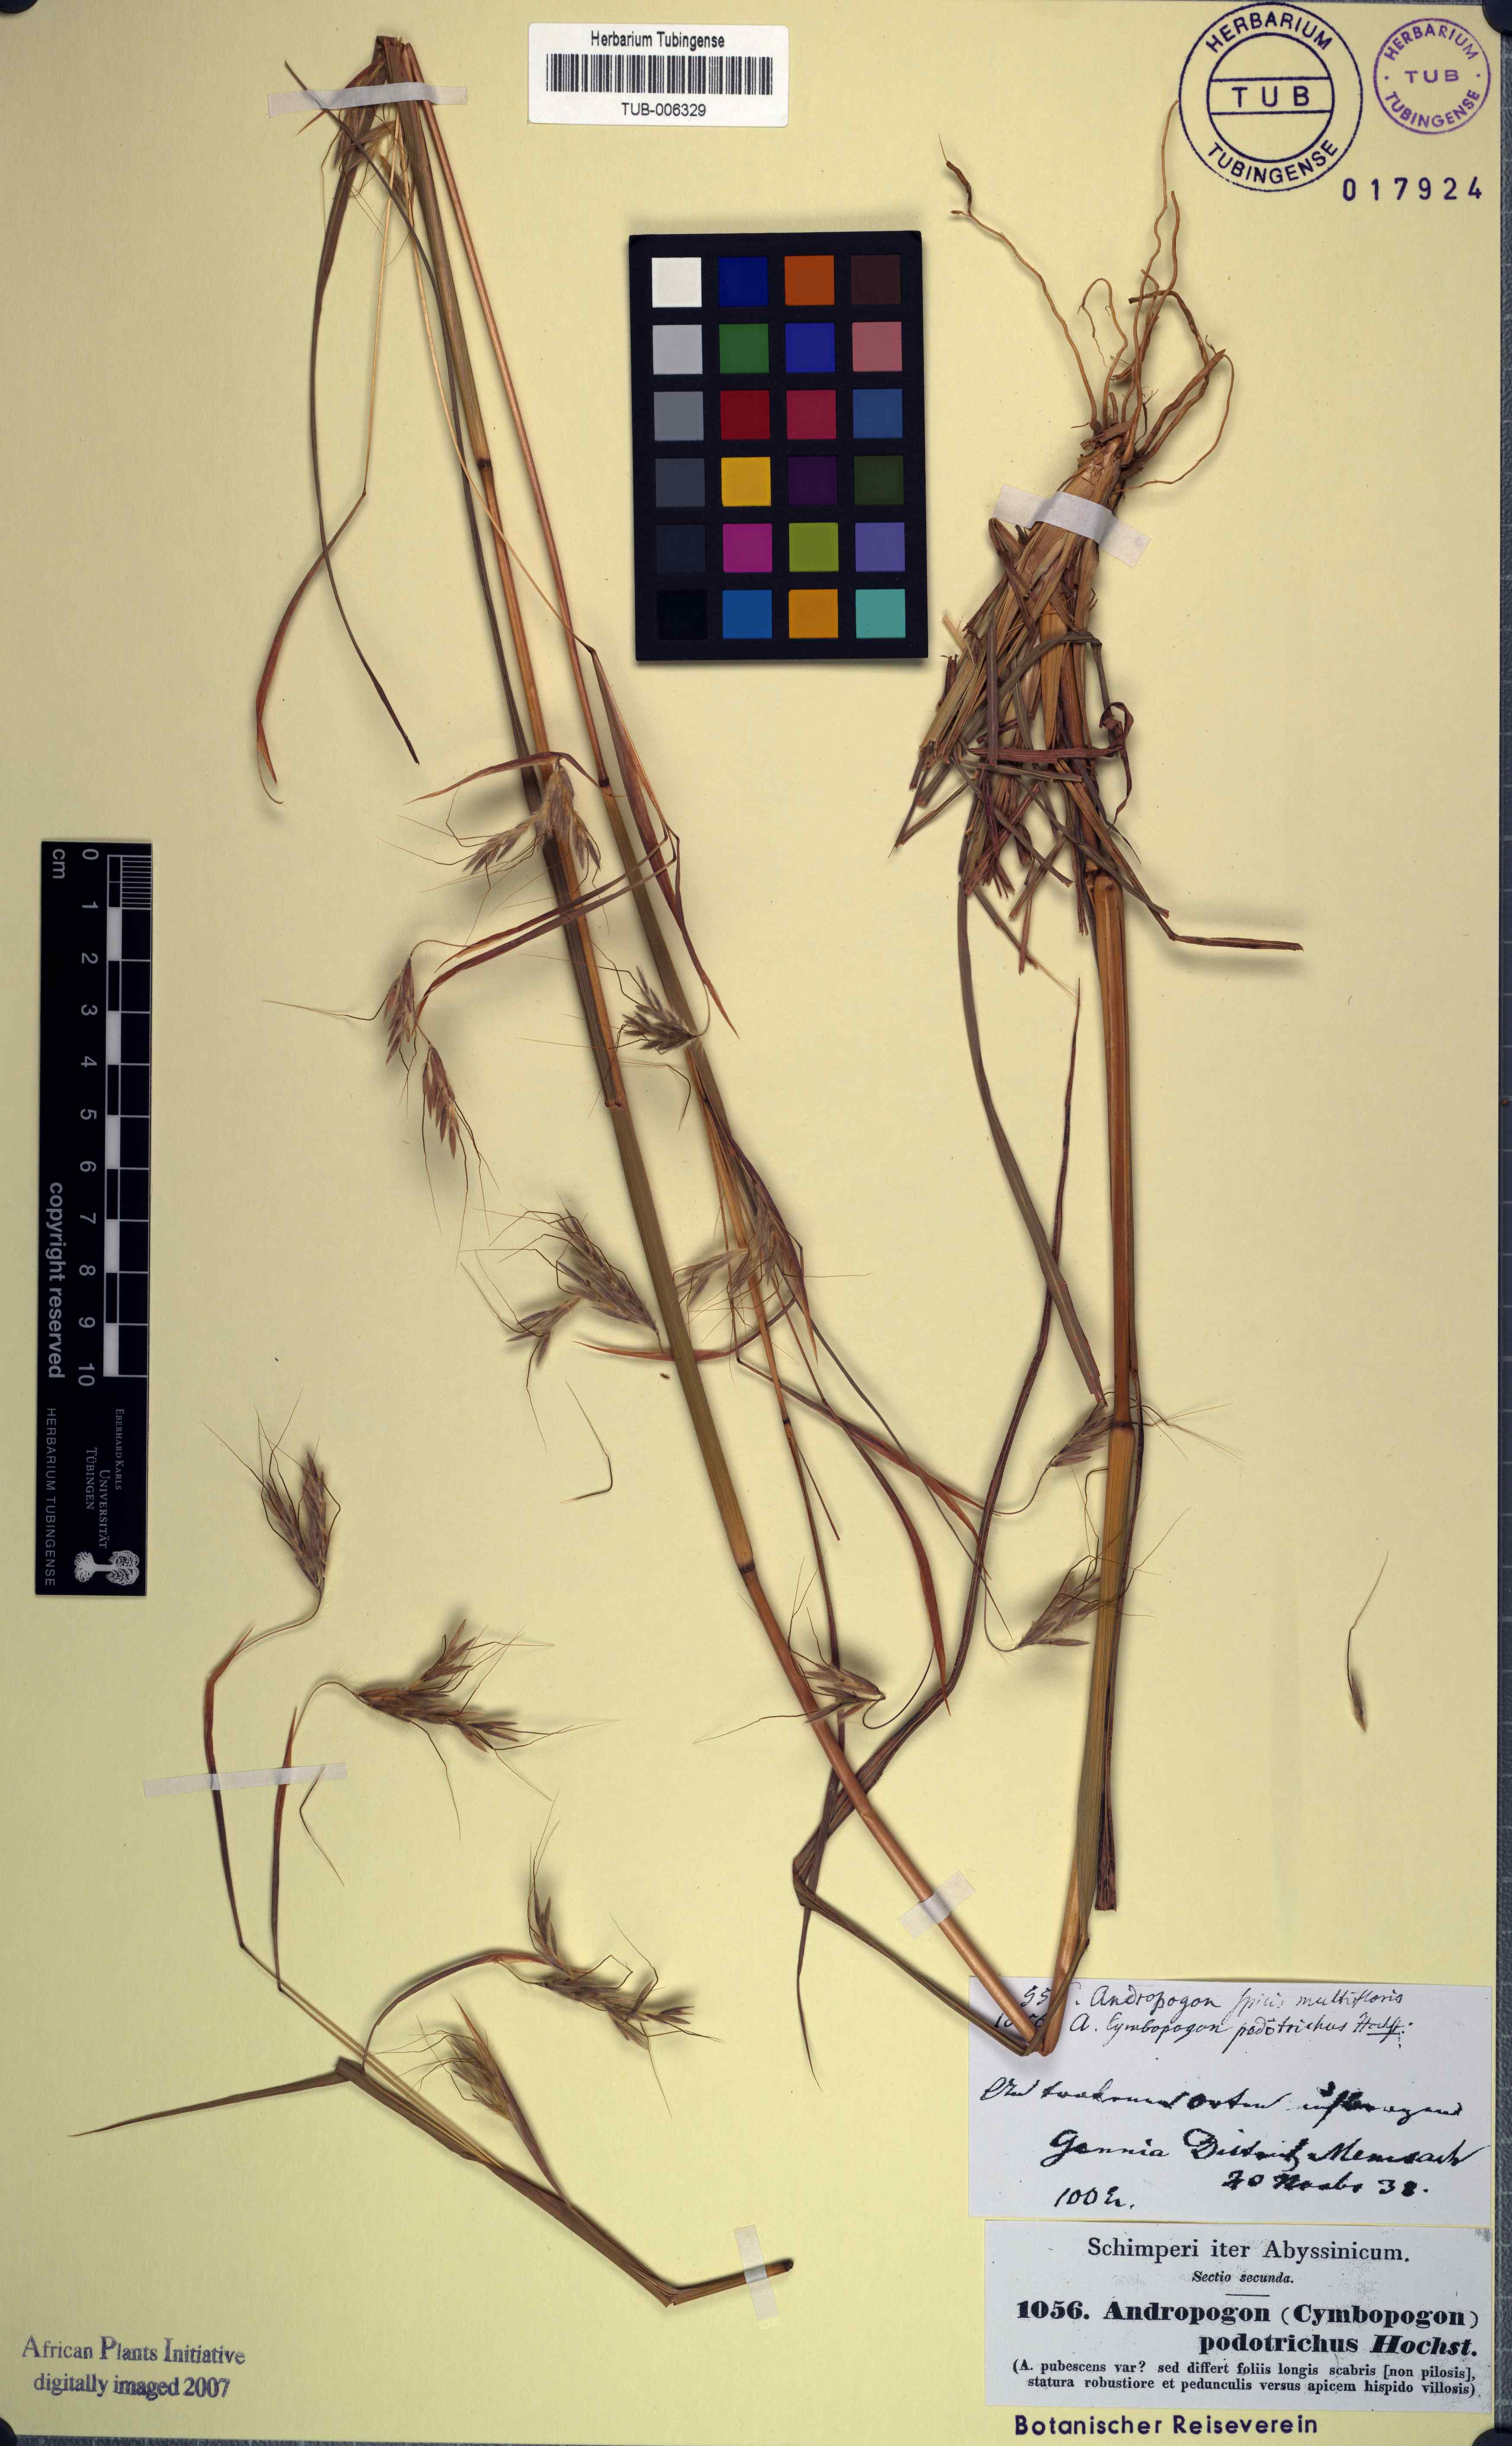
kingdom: Plantae
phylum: Tracheophyta
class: Liliopsida
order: Poales
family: Poaceae
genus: Heteropogon
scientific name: Heteropogon contortus
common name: Tanglehead
